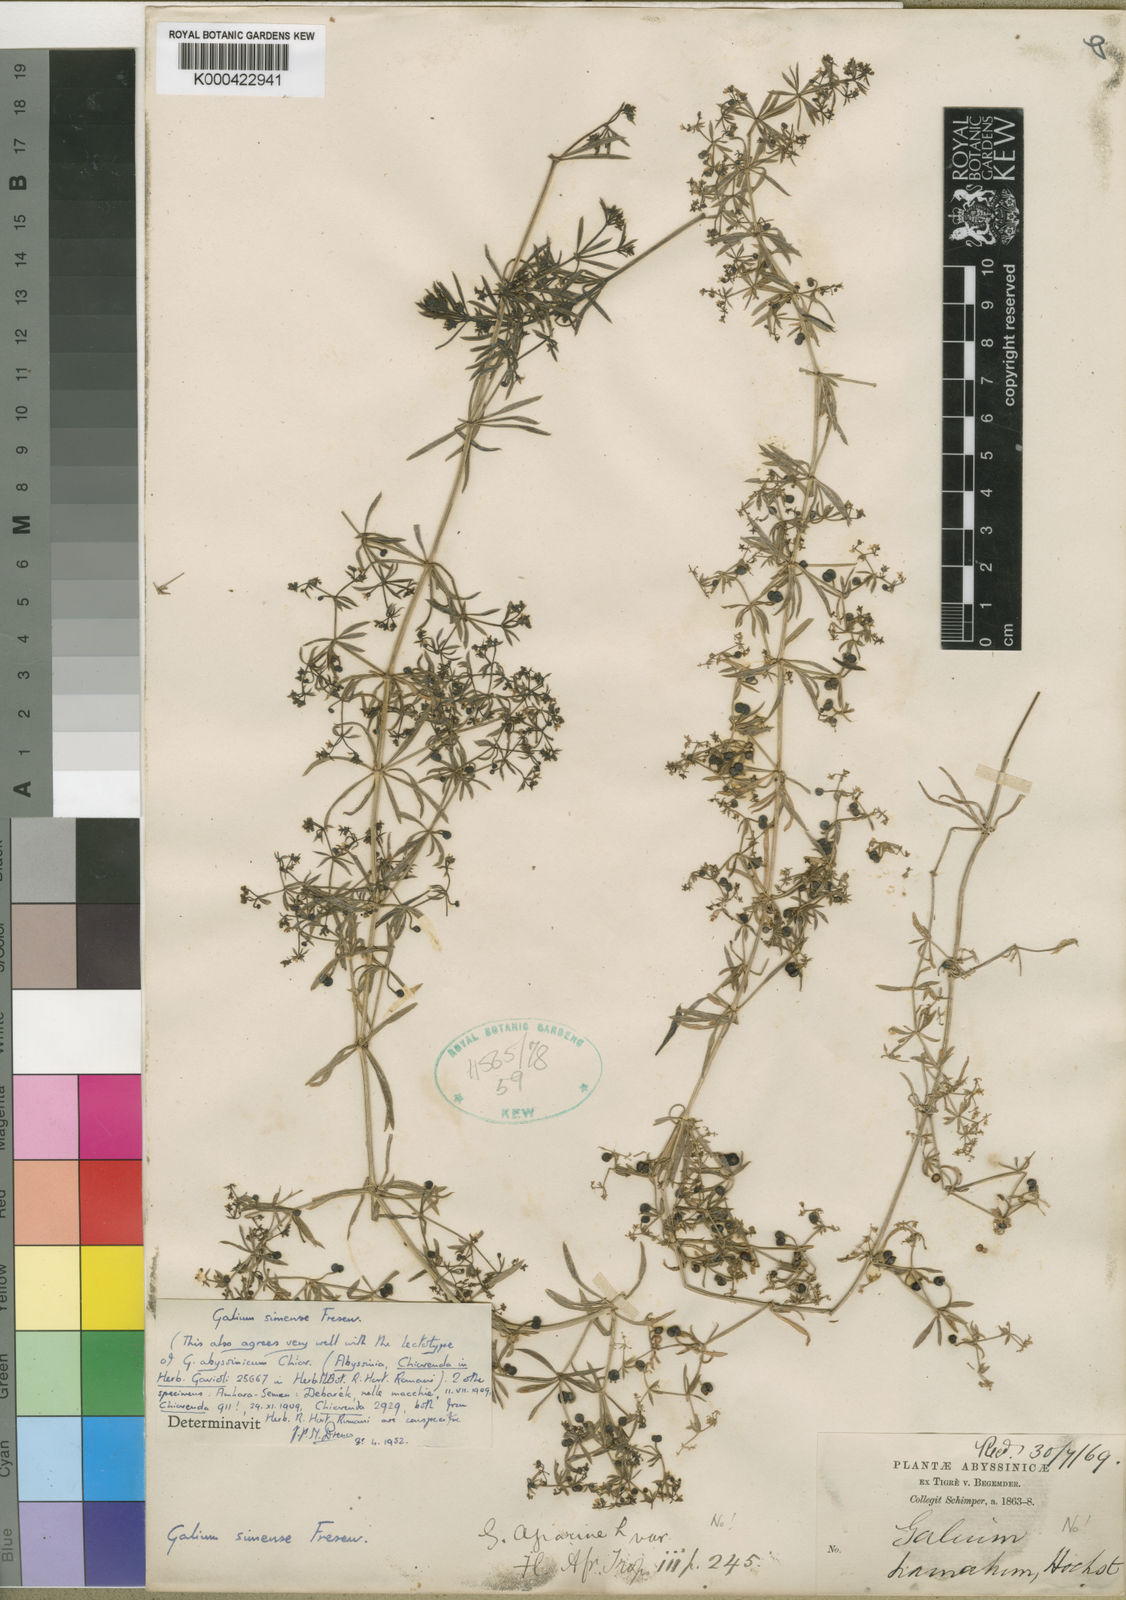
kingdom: Plantae
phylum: Tracheophyta
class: Magnoliopsida
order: Gentianales
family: Rubiaceae
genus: Galium
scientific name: Galium simense
